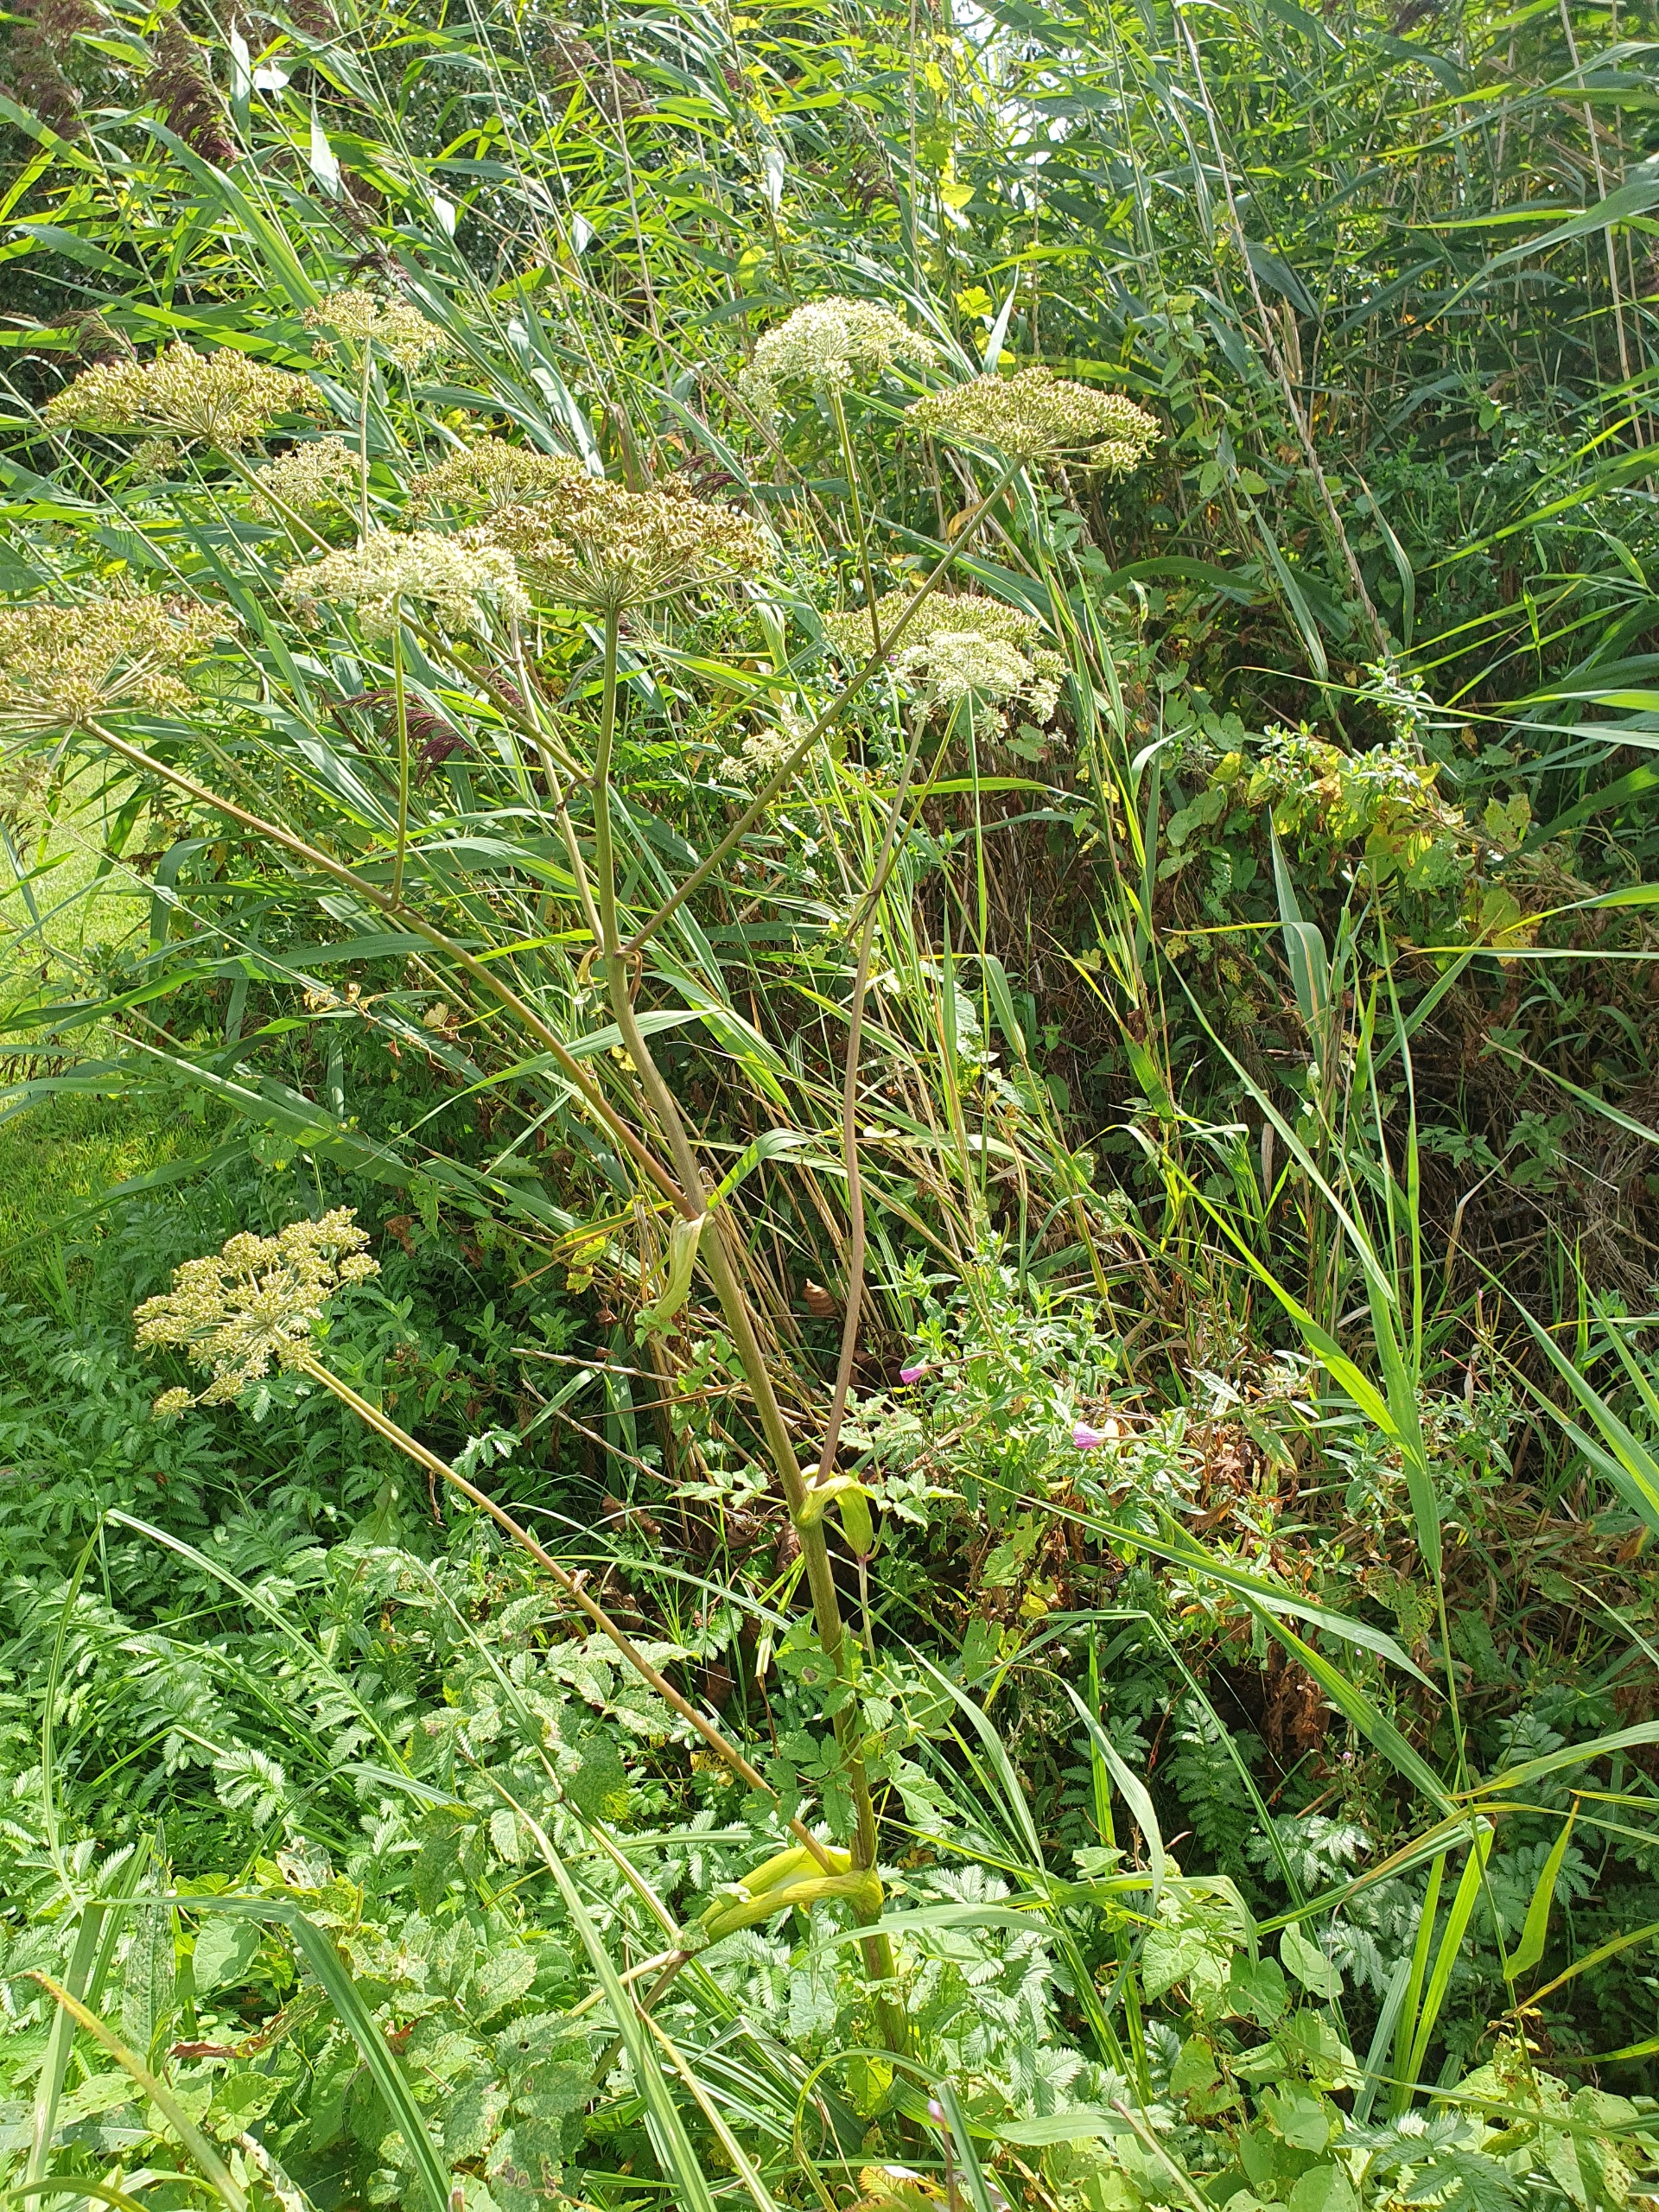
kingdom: Plantae
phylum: Tracheophyta
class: Magnoliopsida
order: Apiales
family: Apiaceae
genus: Angelica
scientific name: Angelica sylvestris
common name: Angelik
